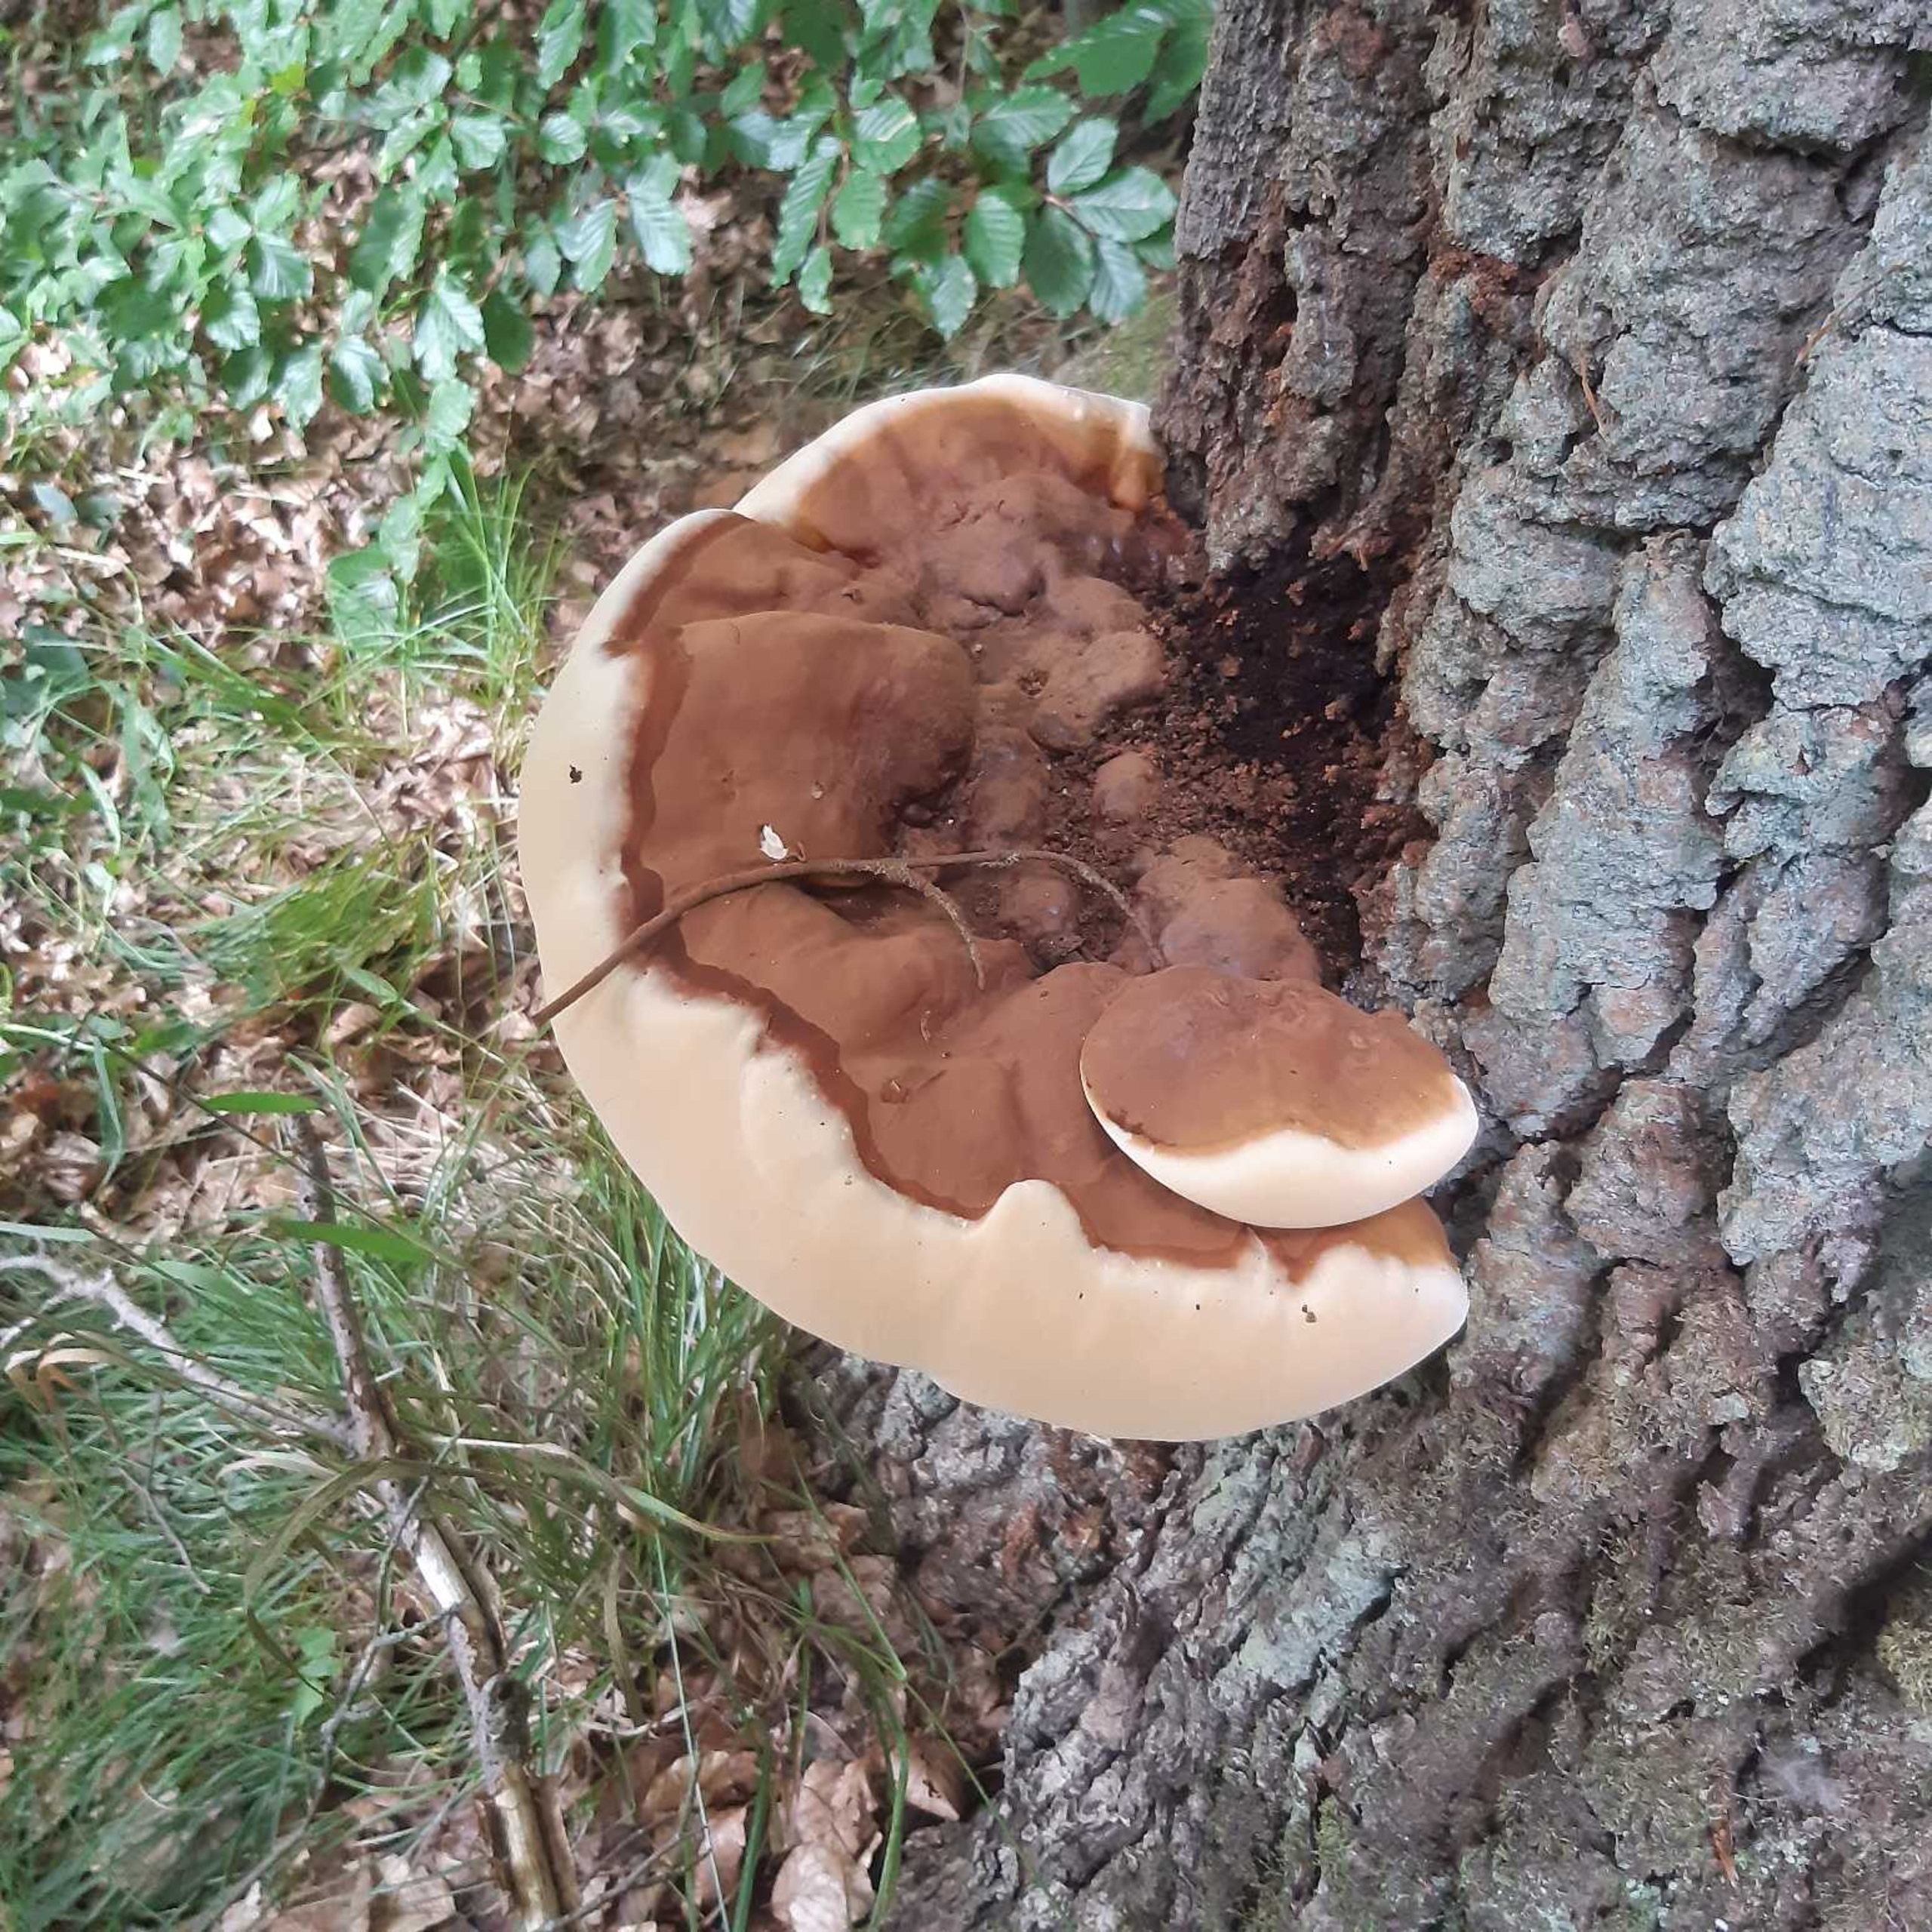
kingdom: Fungi
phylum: Basidiomycota
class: Agaricomycetes
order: Polyporales
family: Polyporaceae
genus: Ganoderma
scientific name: Ganoderma resinaceum
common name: Gyldenbrun lakporesvamp
